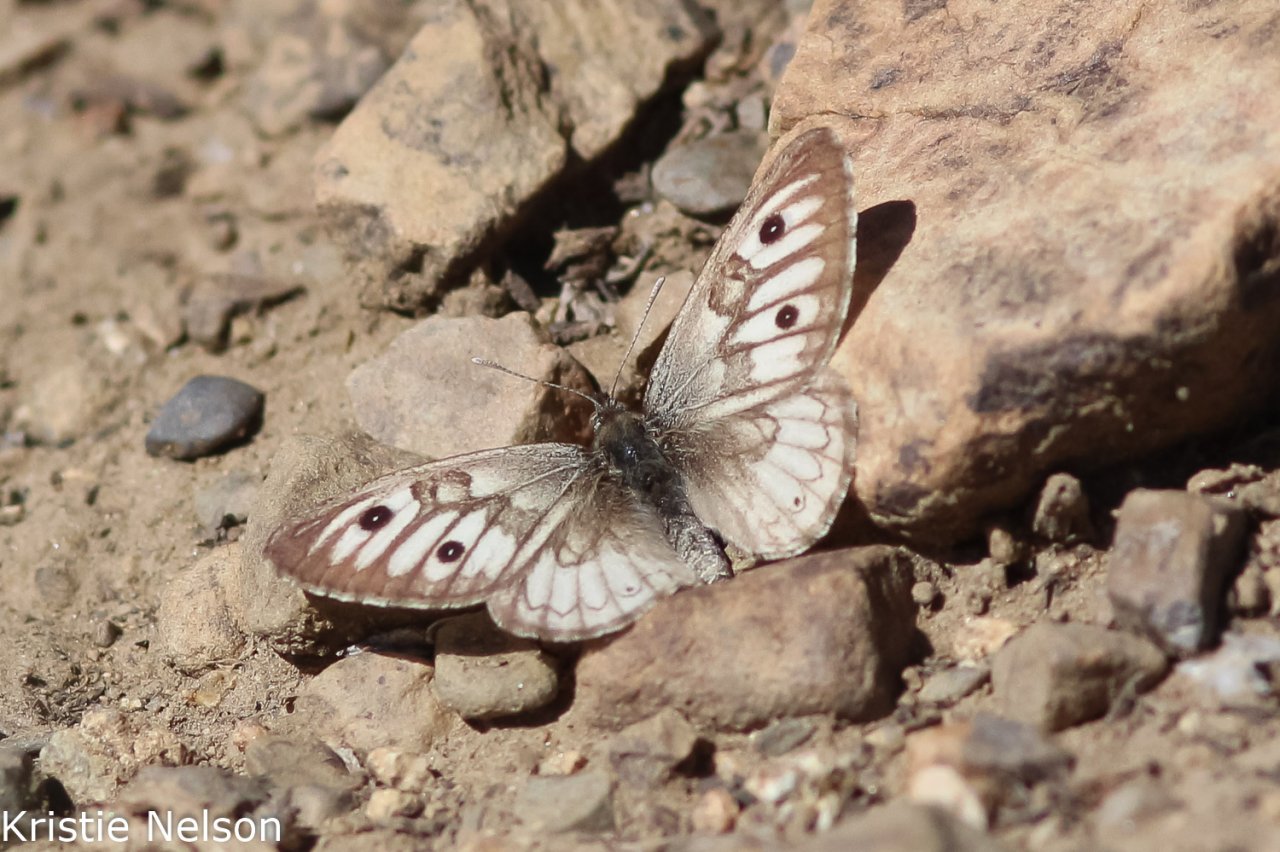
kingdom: Animalia
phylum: Arthropoda
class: Insecta
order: Lepidoptera
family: Nymphalidae
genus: Neominois
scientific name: Neominois ridingsii
